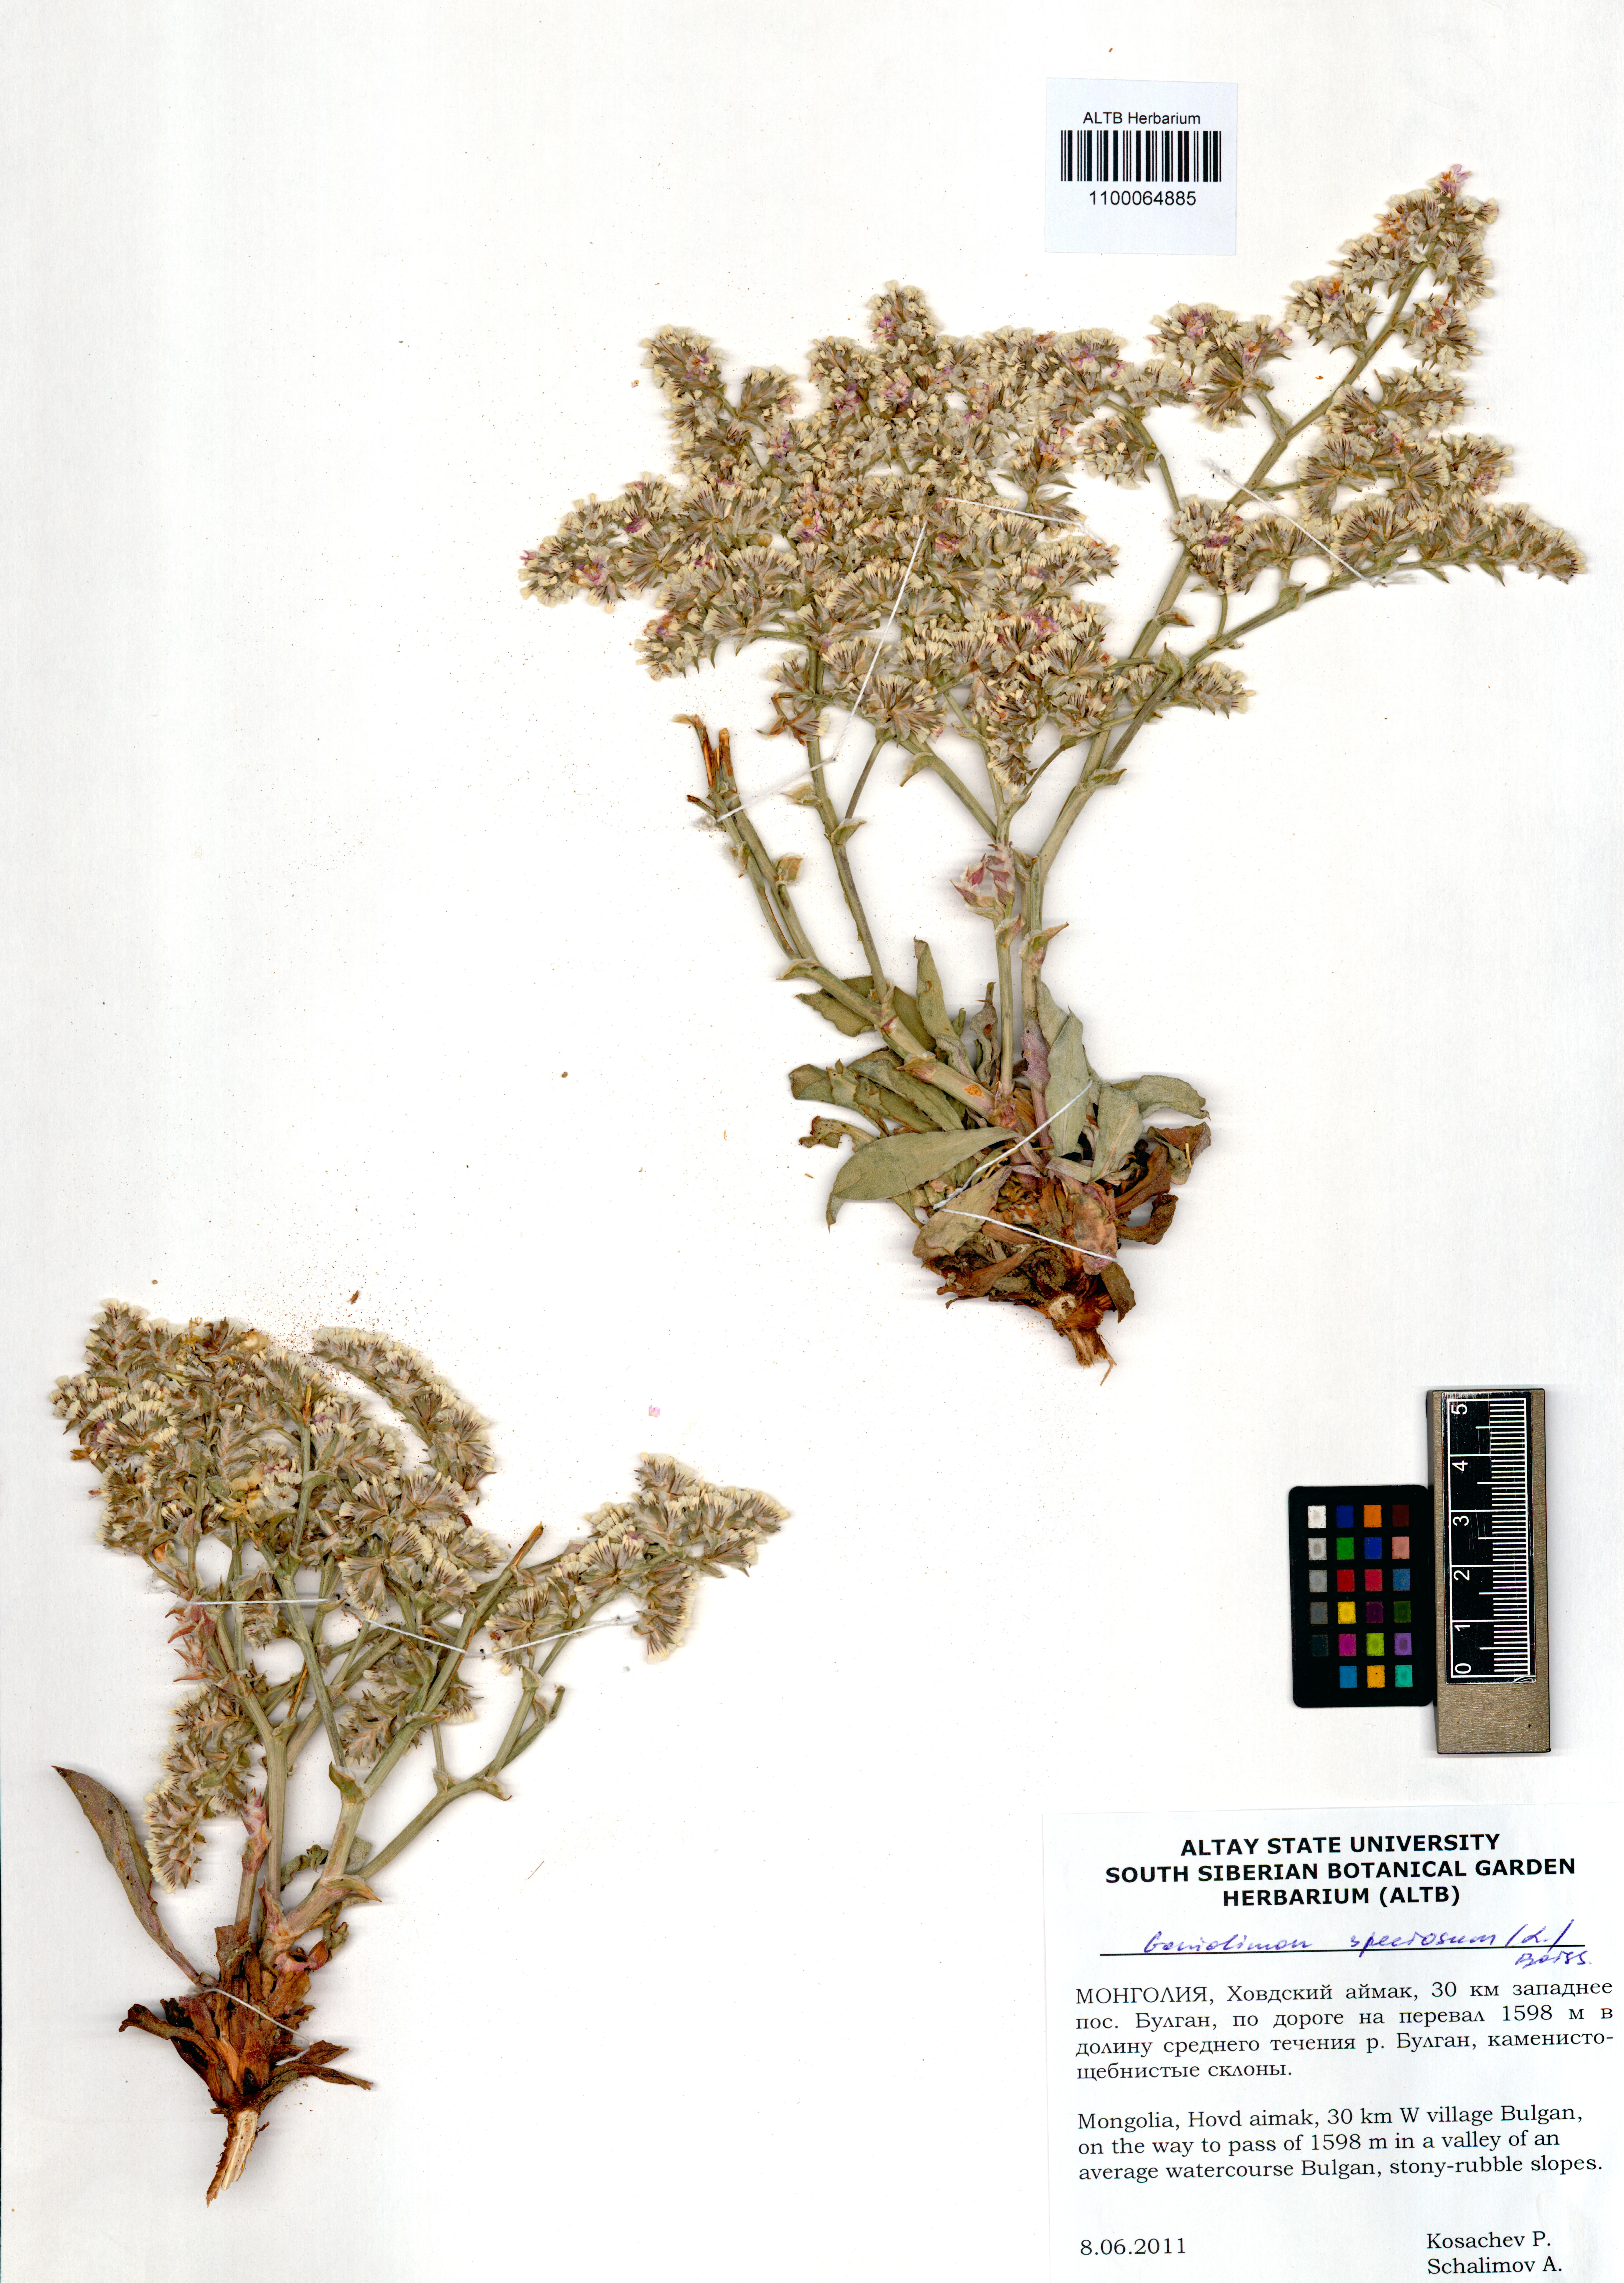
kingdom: Plantae
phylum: Tracheophyta
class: Magnoliopsida
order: Caryophyllales
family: Plumbaginaceae
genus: Goniolimon
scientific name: Goniolimon speciosum
